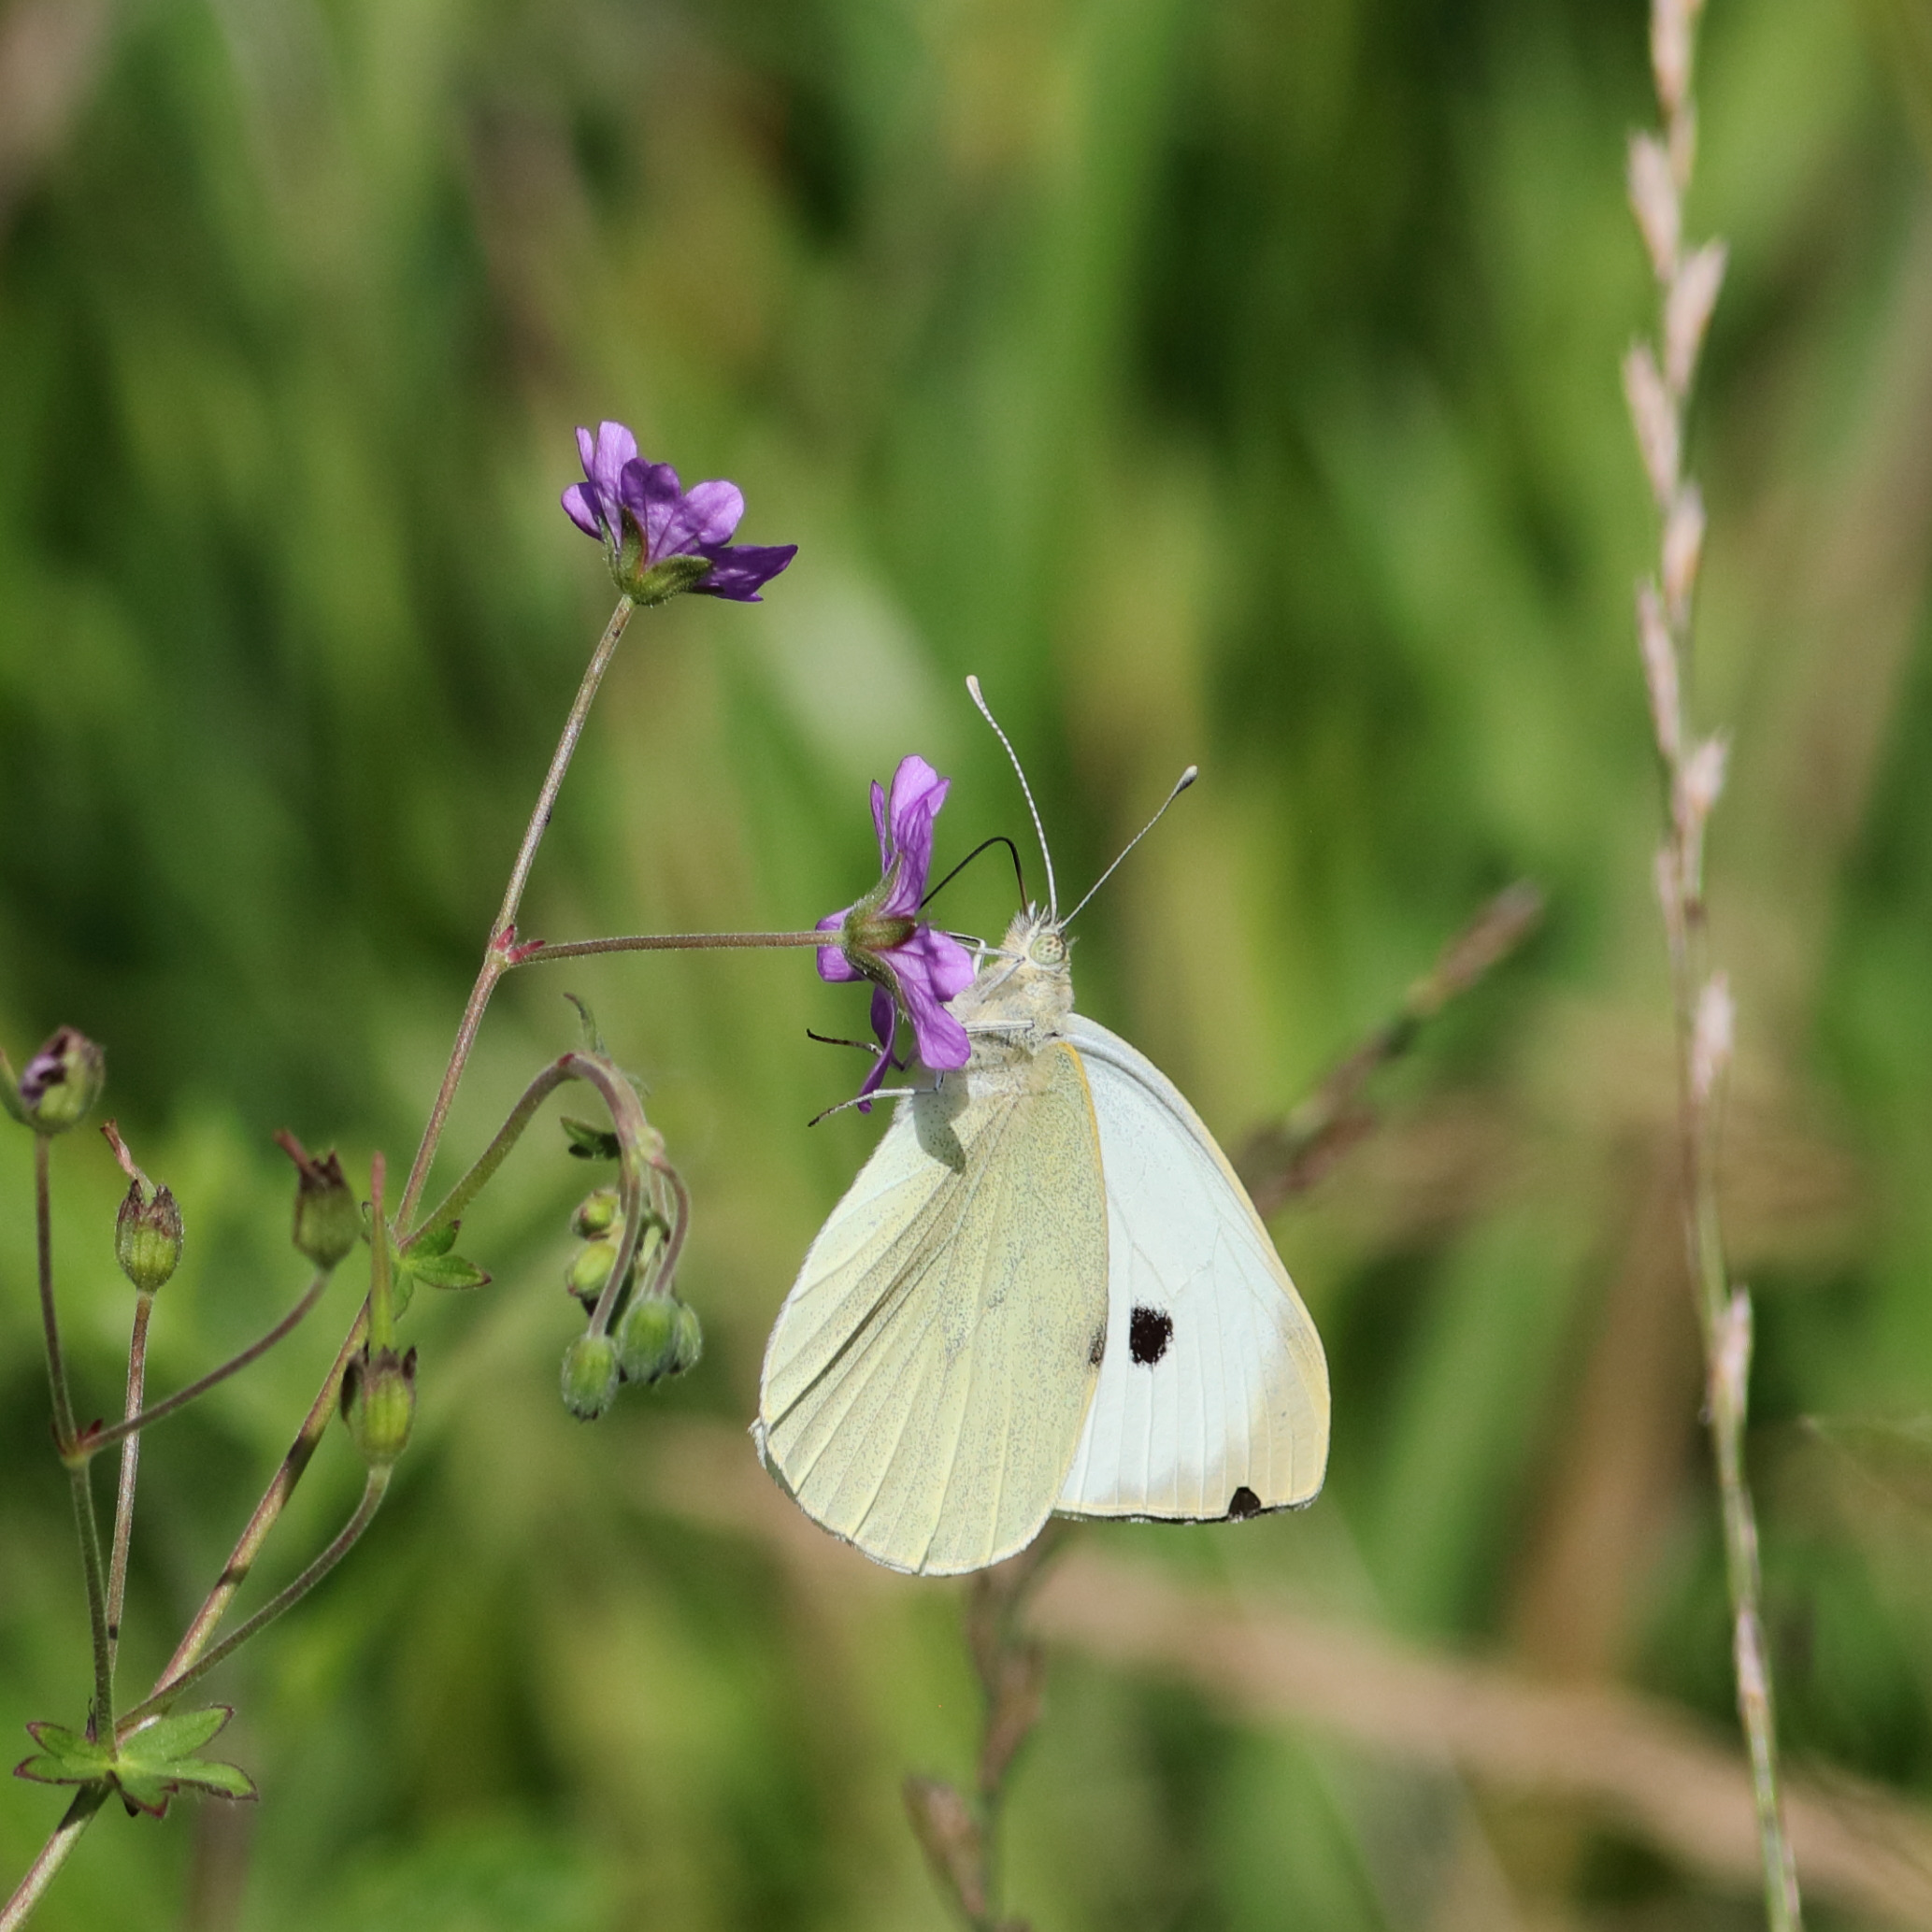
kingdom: Animalia
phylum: Arthropoda
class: Insecta
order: Lepidoptera
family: Pieridae
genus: Pieris
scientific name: Pieris brassicae
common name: Stor kålsommerfugl
